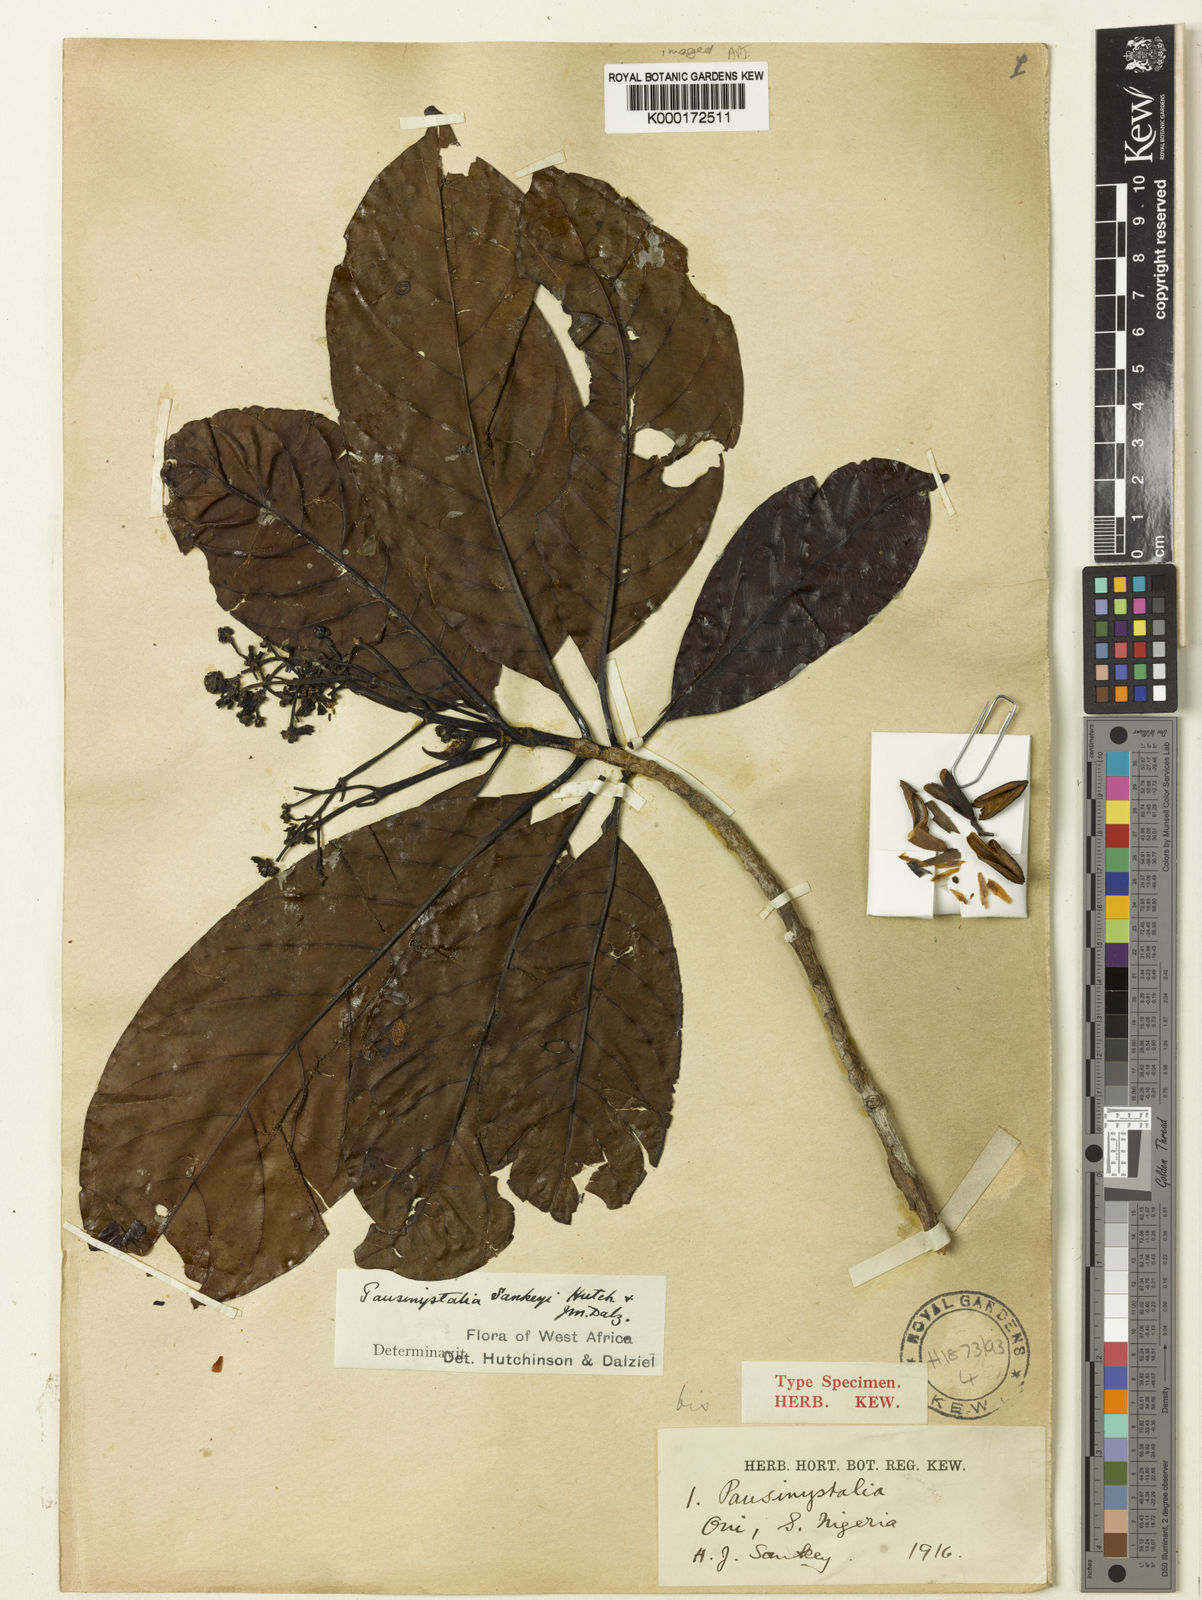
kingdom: Plantae
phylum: Tracheophyta
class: Magnoliopsida
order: Gentianales
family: Rubiaceae
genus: Corynanthe
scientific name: Corynanthe talbotii
